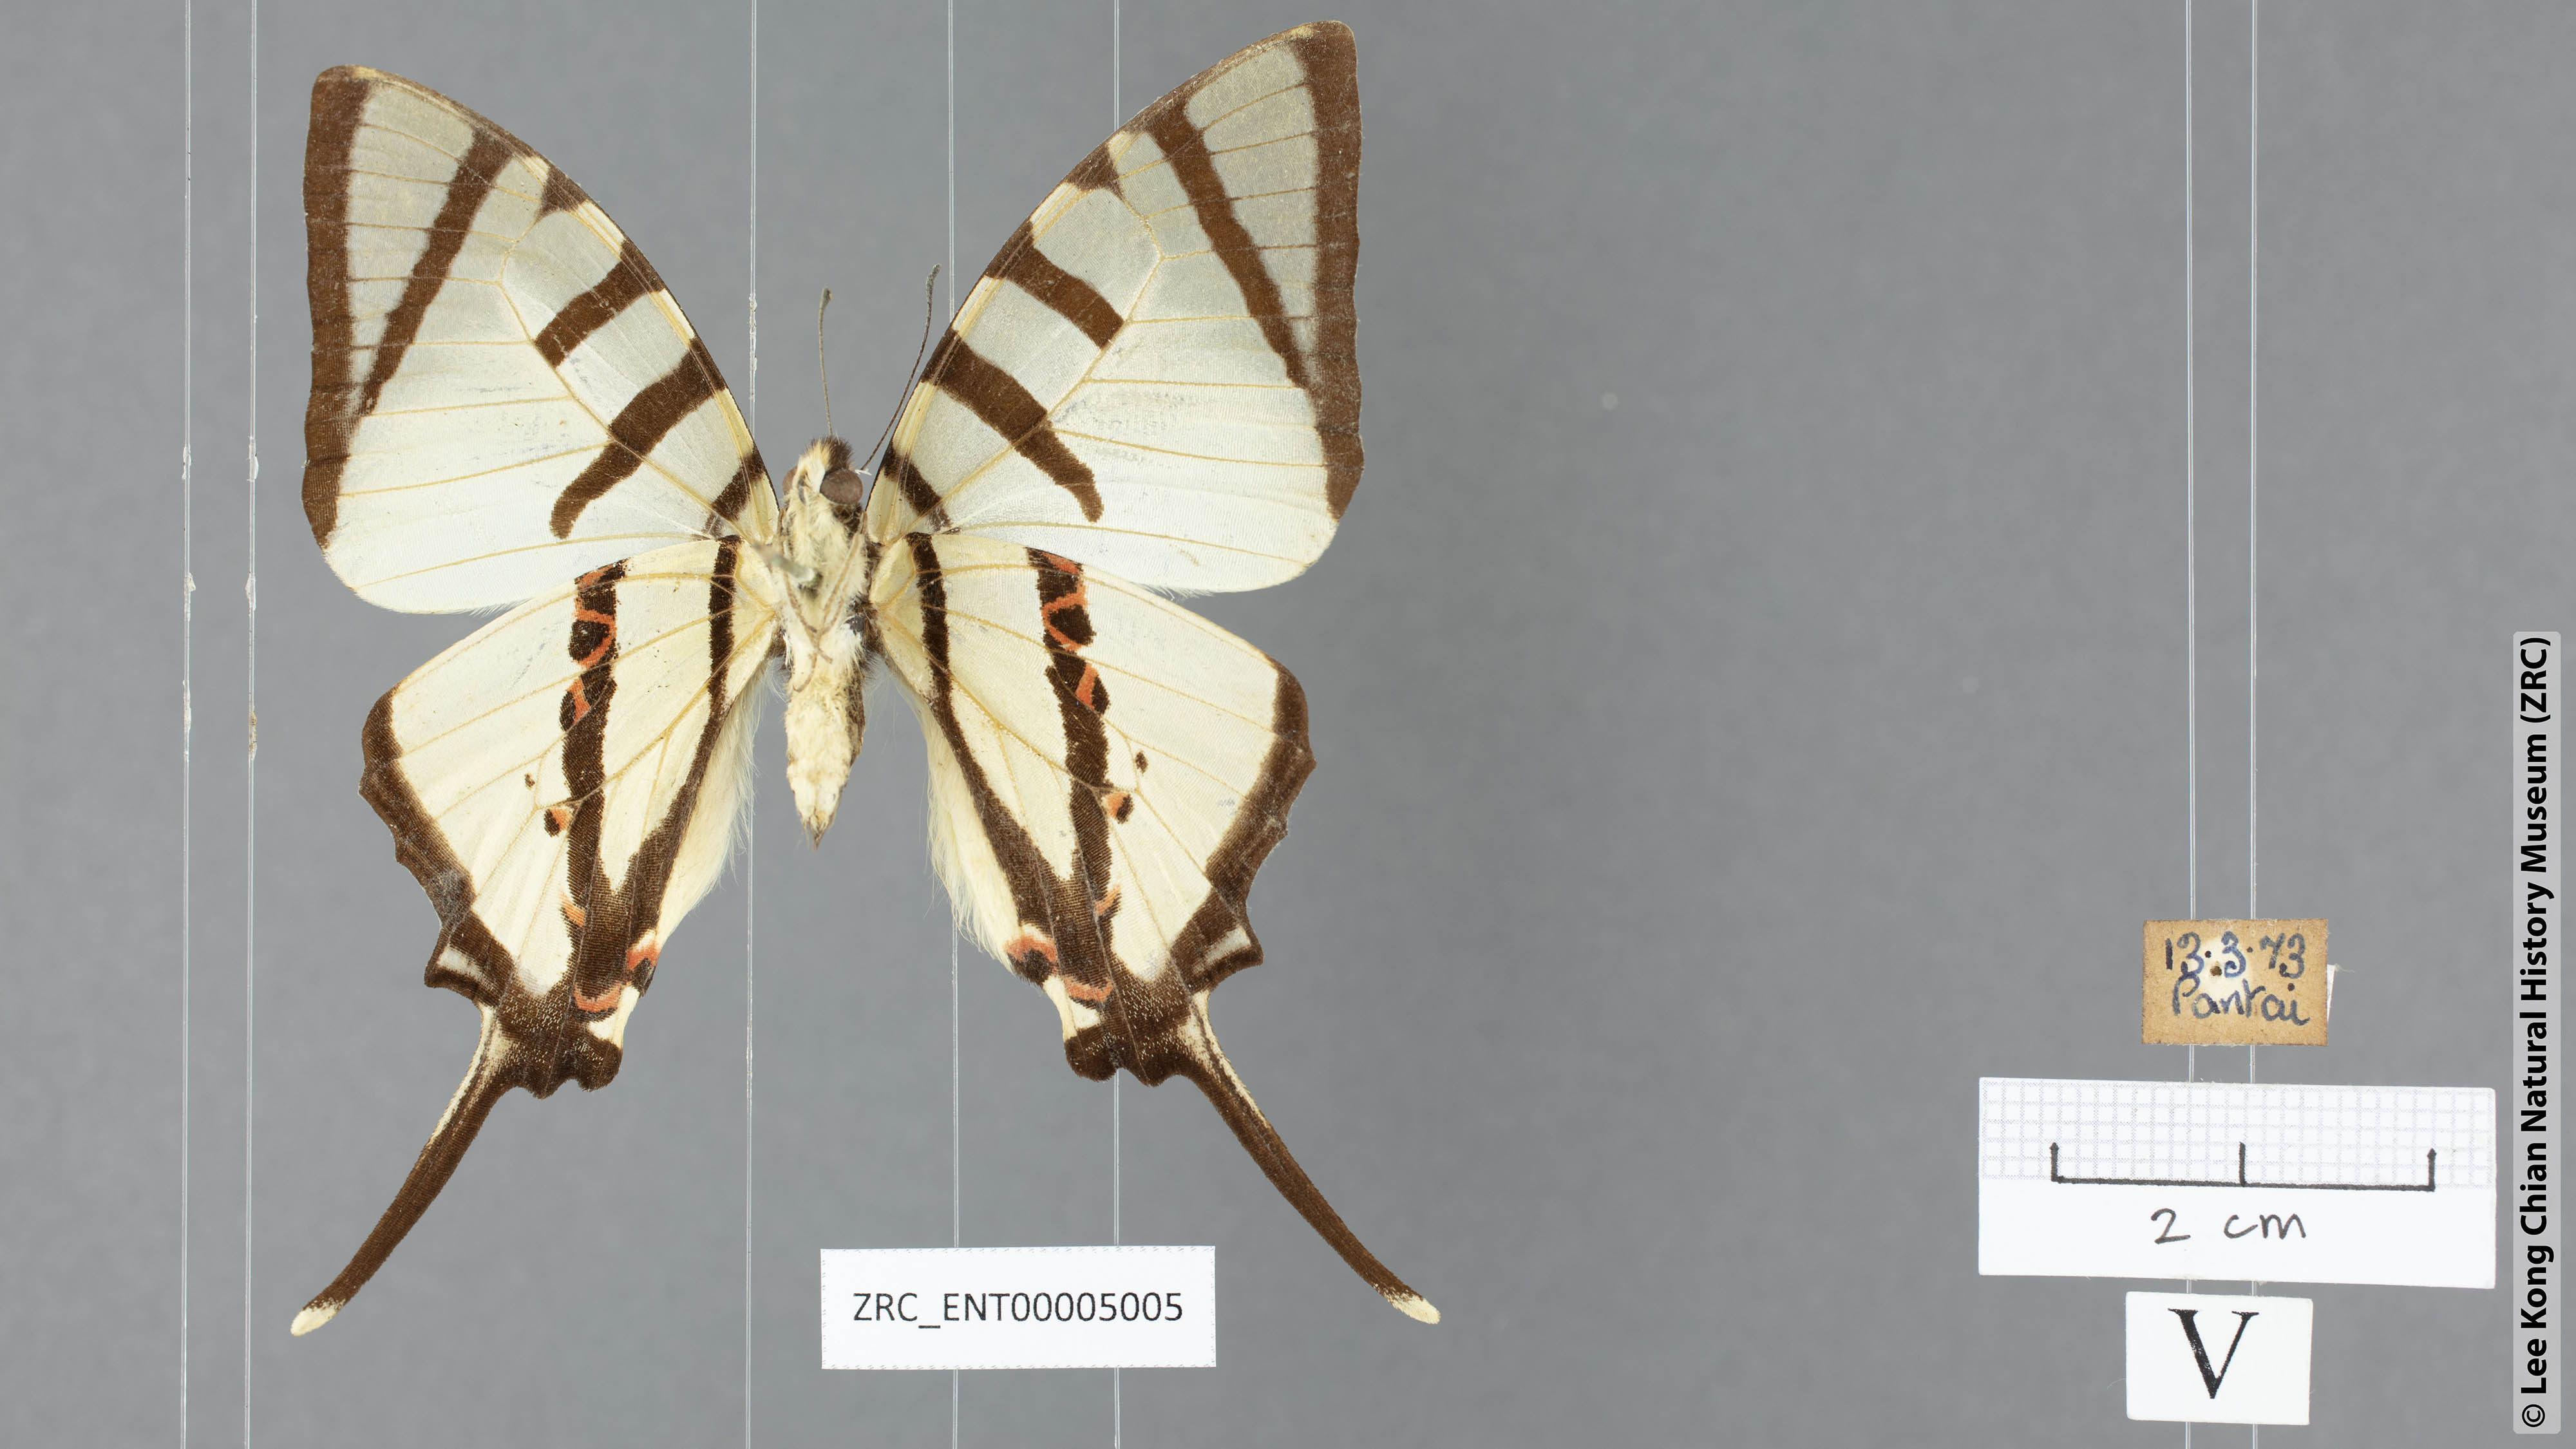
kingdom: Animalia
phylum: Arthropoda
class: Insecta
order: Lepidoptera
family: Papilionidae
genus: Graphium
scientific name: Graphium agetes
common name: Fourbar swordtail
